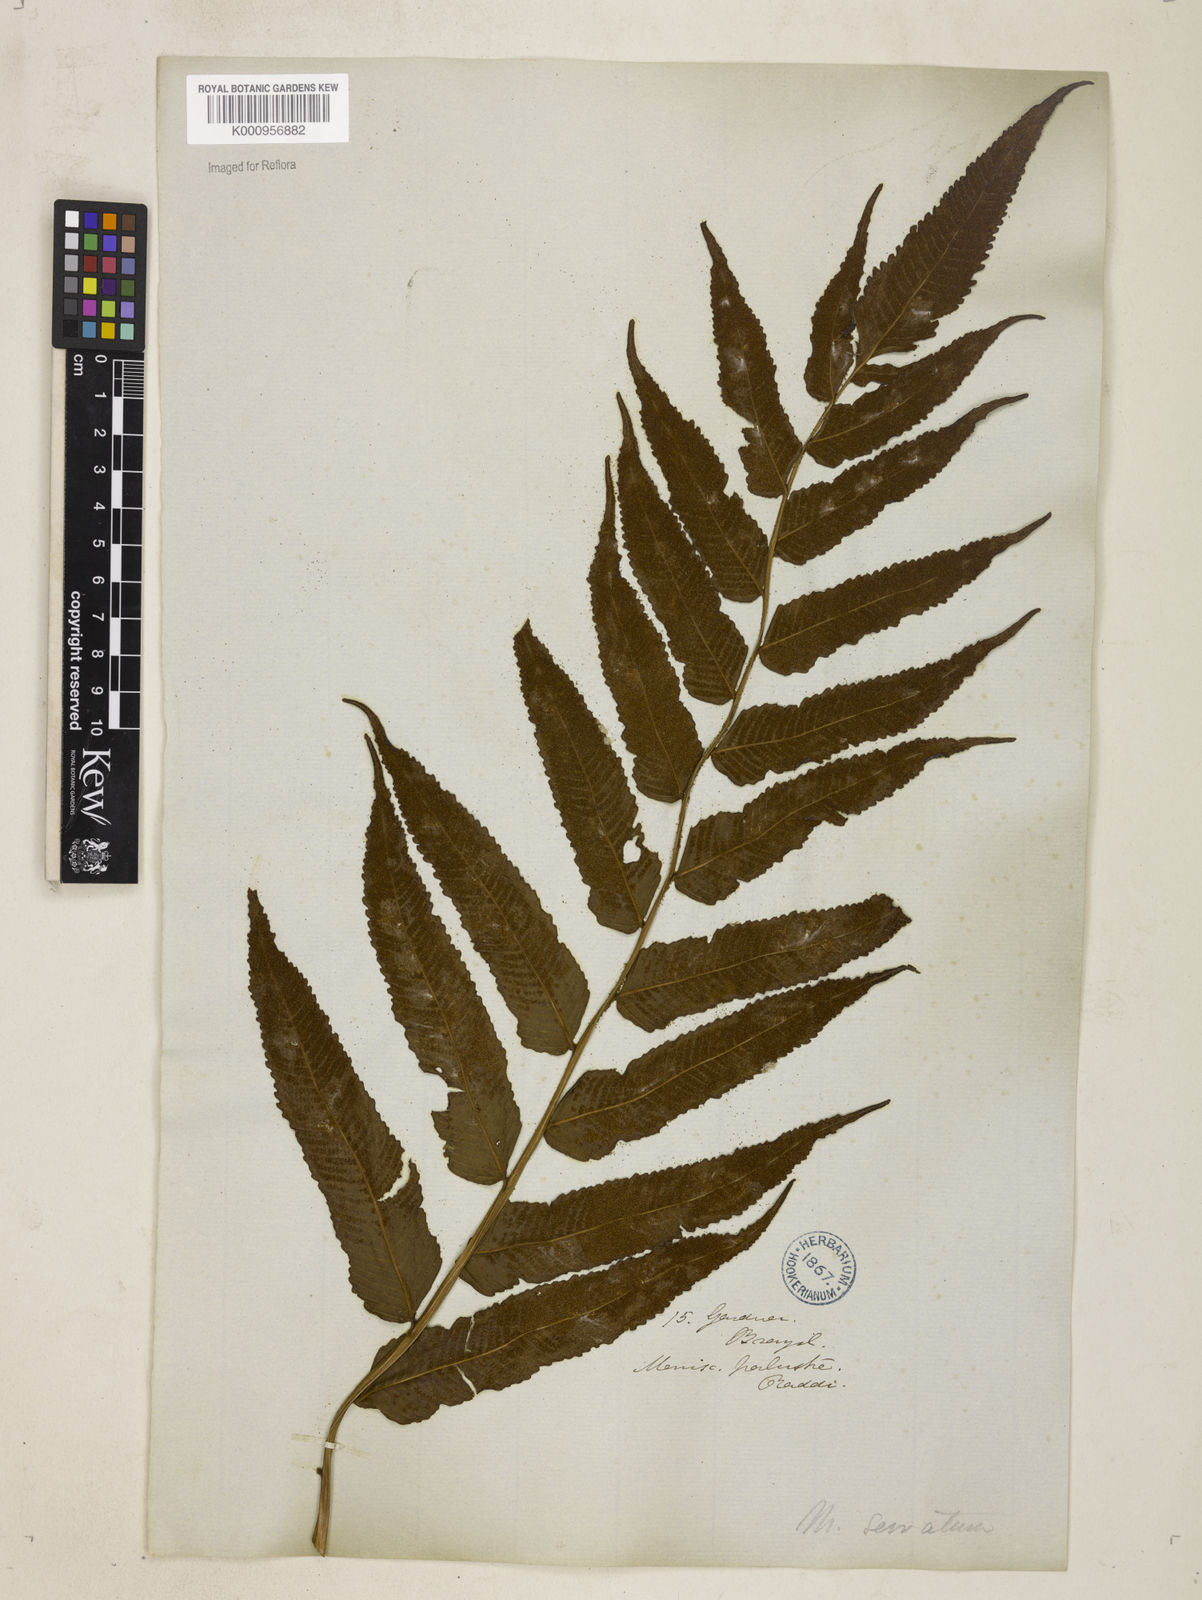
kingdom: Plantae
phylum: Tracheophyta
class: Polypodiopsida
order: Polypodiales
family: Thelypteridaceae
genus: Meniscium
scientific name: Meniscium serratum
